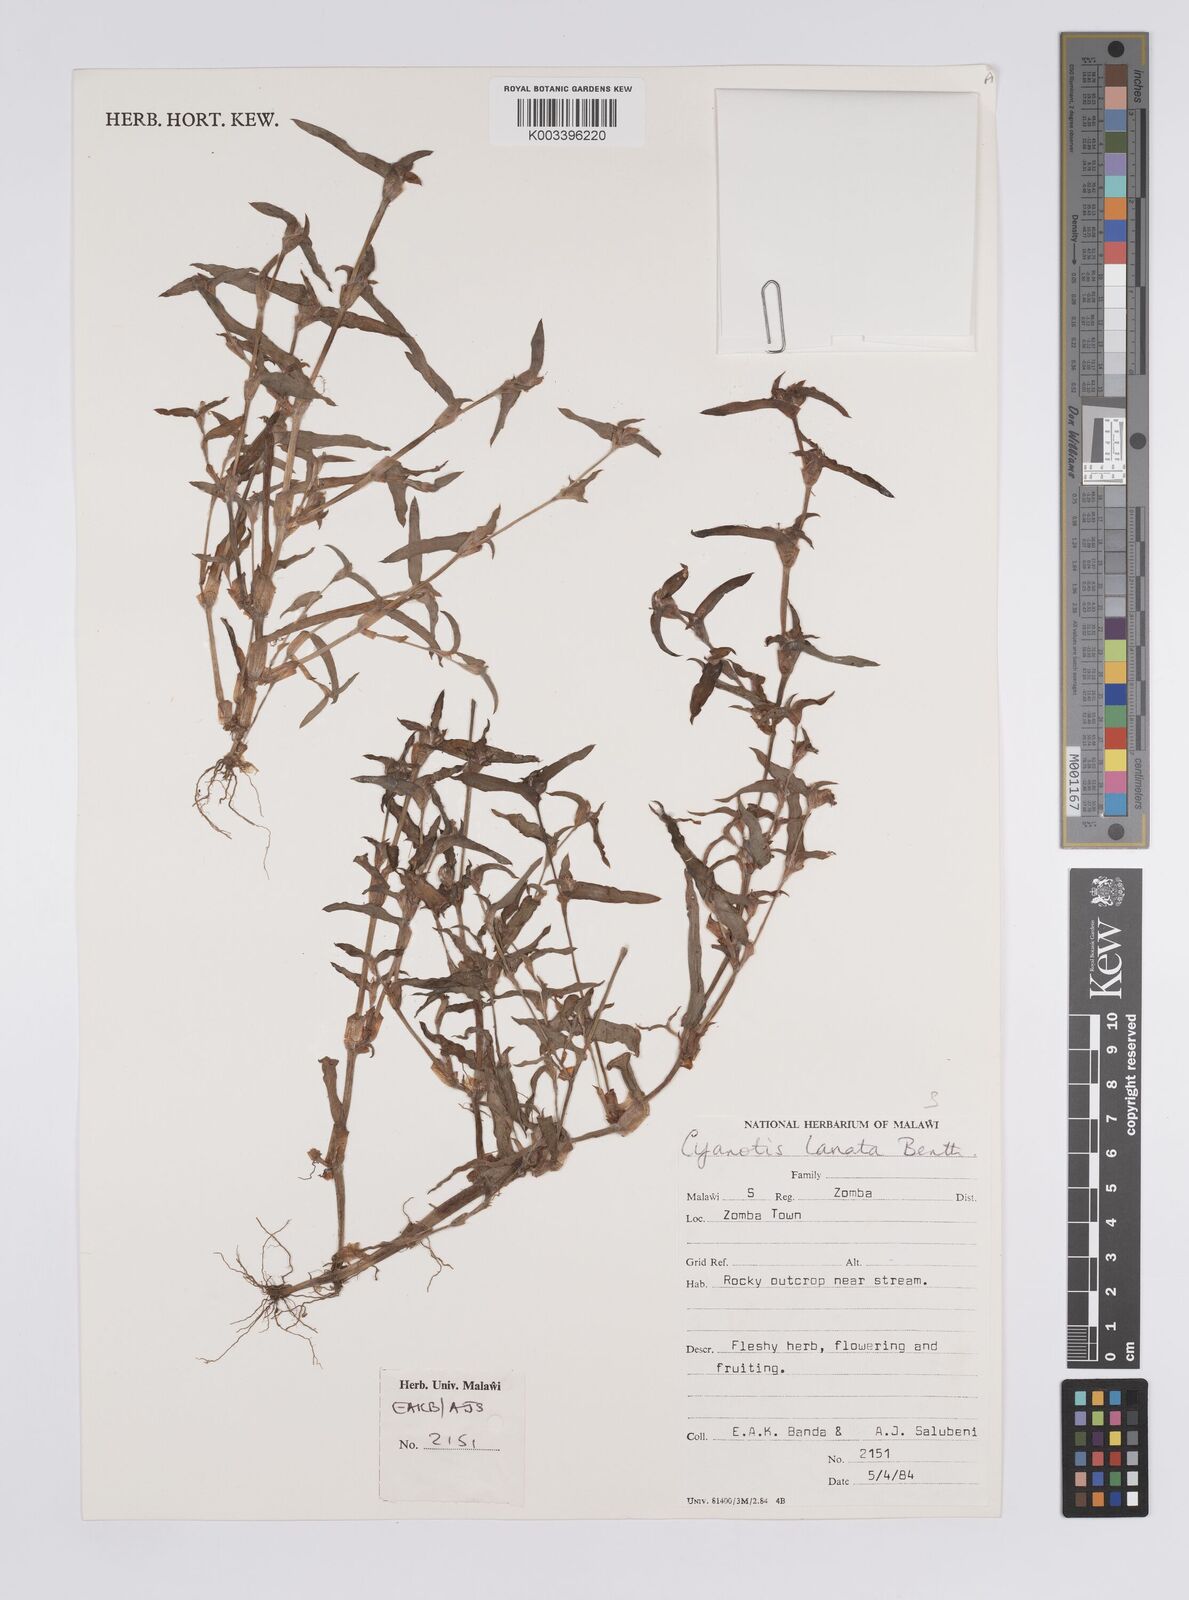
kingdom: Plantae
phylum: Tracheophyta
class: Liliopsida
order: Commelinales
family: Commelinaceae
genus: Cyanotis
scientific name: Cyanotis lanata
